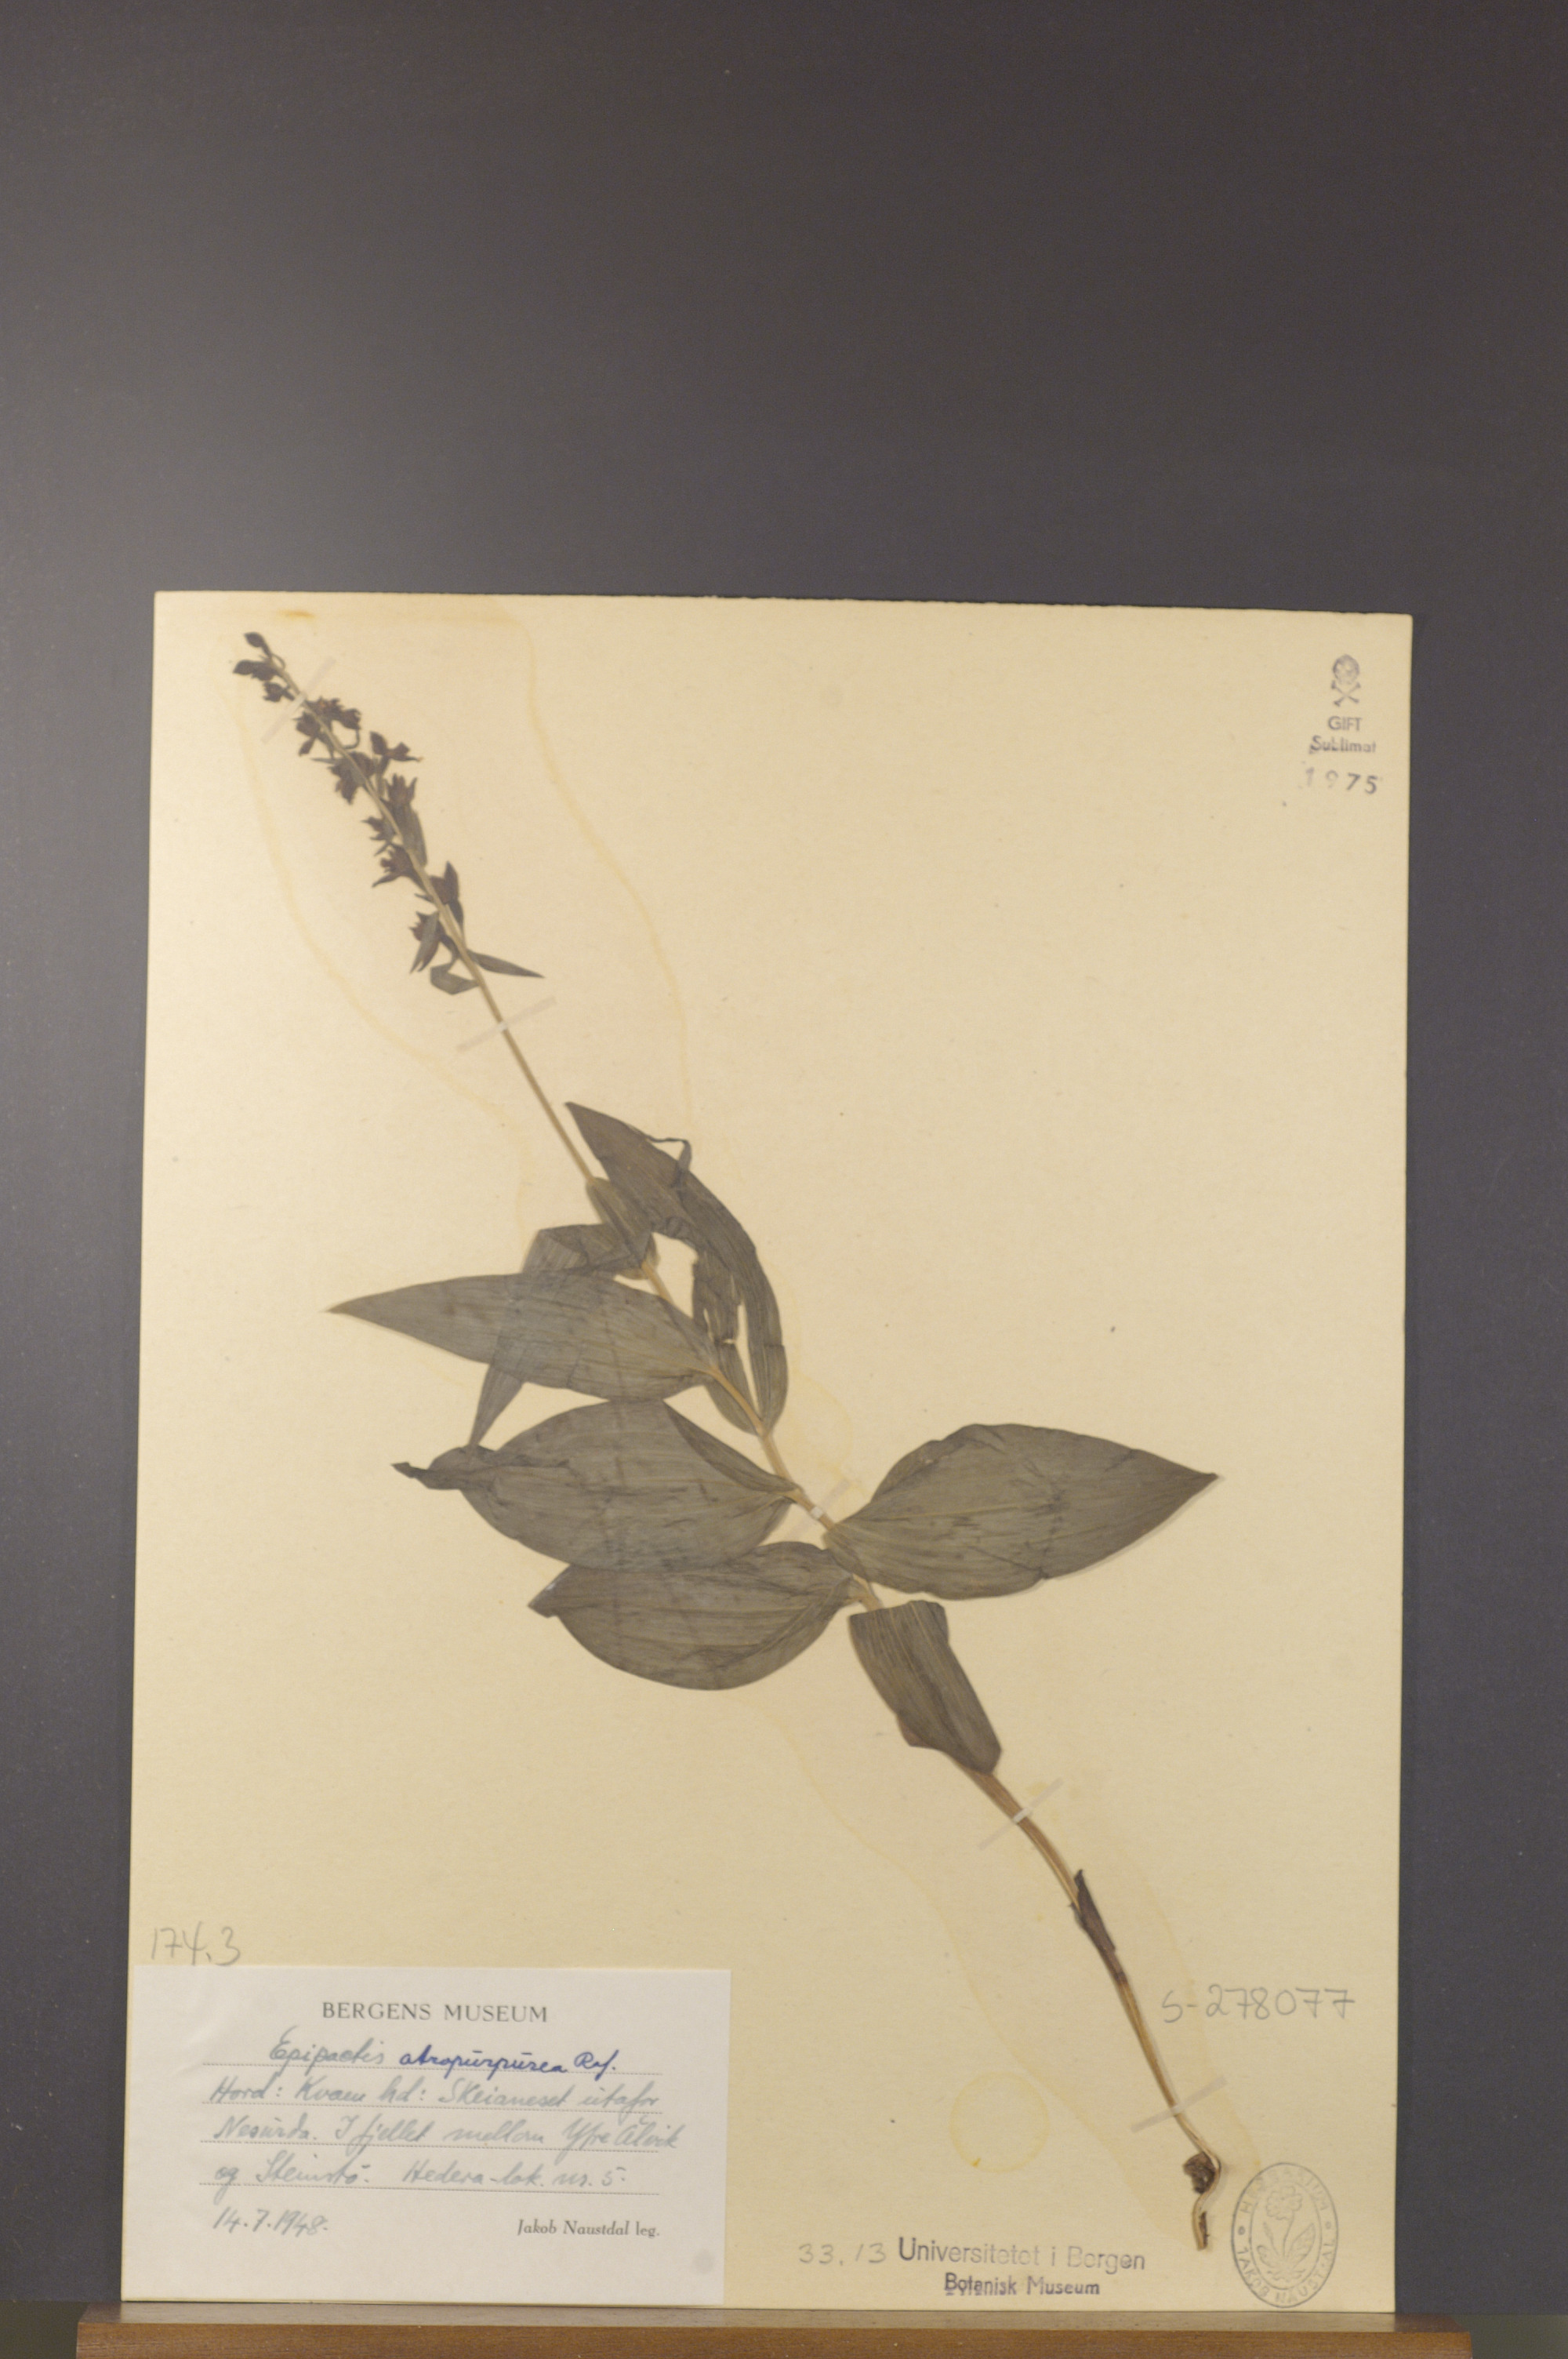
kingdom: Plantae
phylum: Tracheophyta
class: Liliopsida
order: Asparagales
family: Orchidaceae
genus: Epipactis
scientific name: Epipactis atrorubens
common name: Dark-red helleborine
